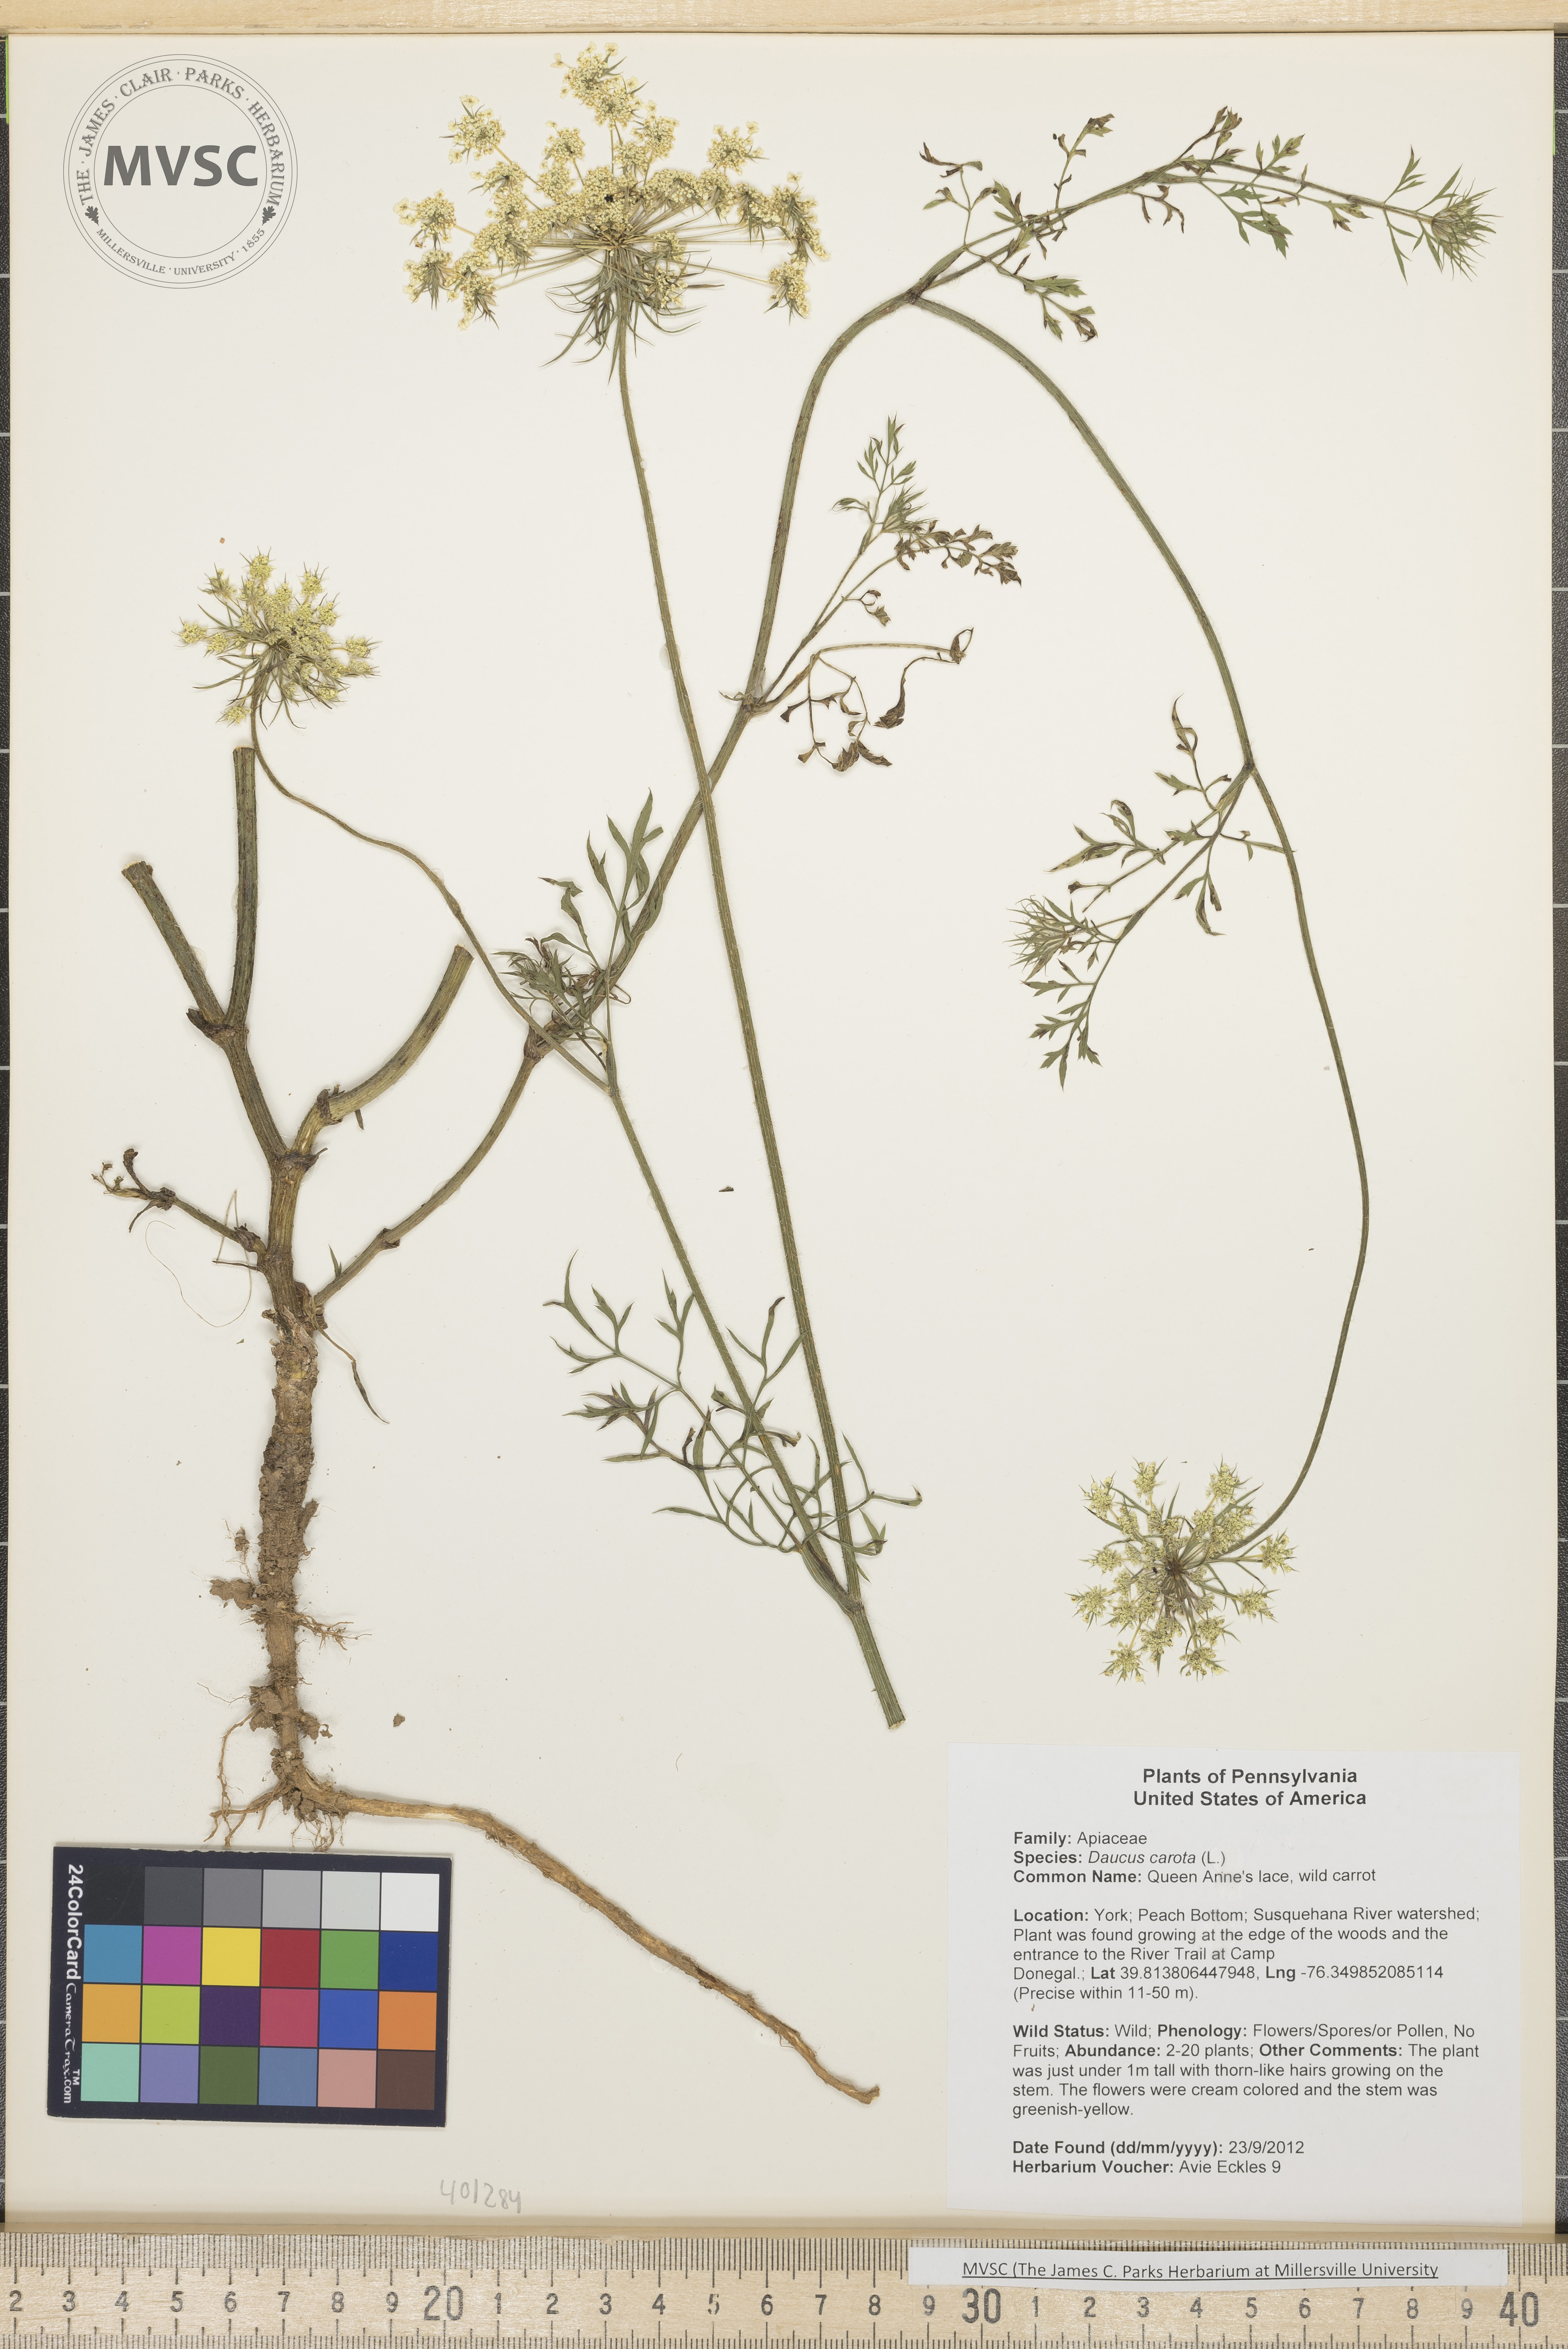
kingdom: Plantae
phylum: Tracheophyta
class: Magnoliopsida
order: Apiales
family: Apiaceae
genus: Daucus
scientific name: Daucus carota
